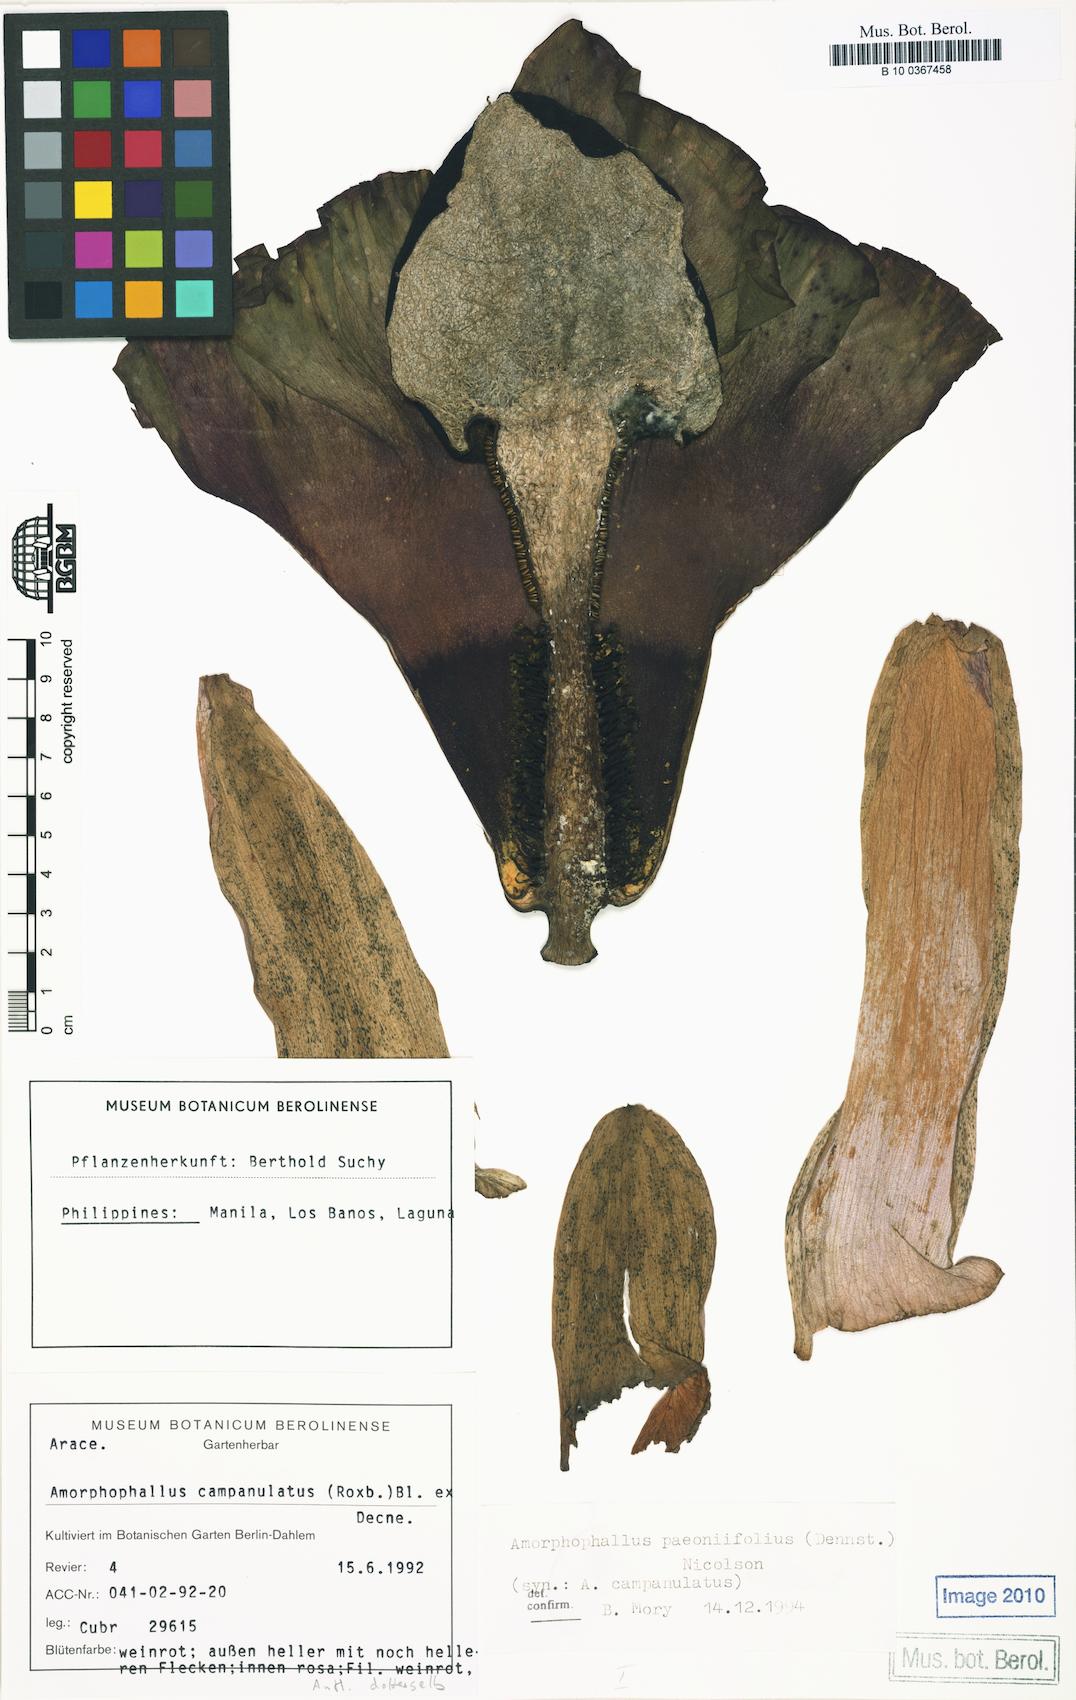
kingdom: Plantae
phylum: Tracheophyta
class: Liliopsida
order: Alismatales
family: Araceae
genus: Amorphophallus
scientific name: Amorphophallus paeoniifolius
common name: Telinga-potato
